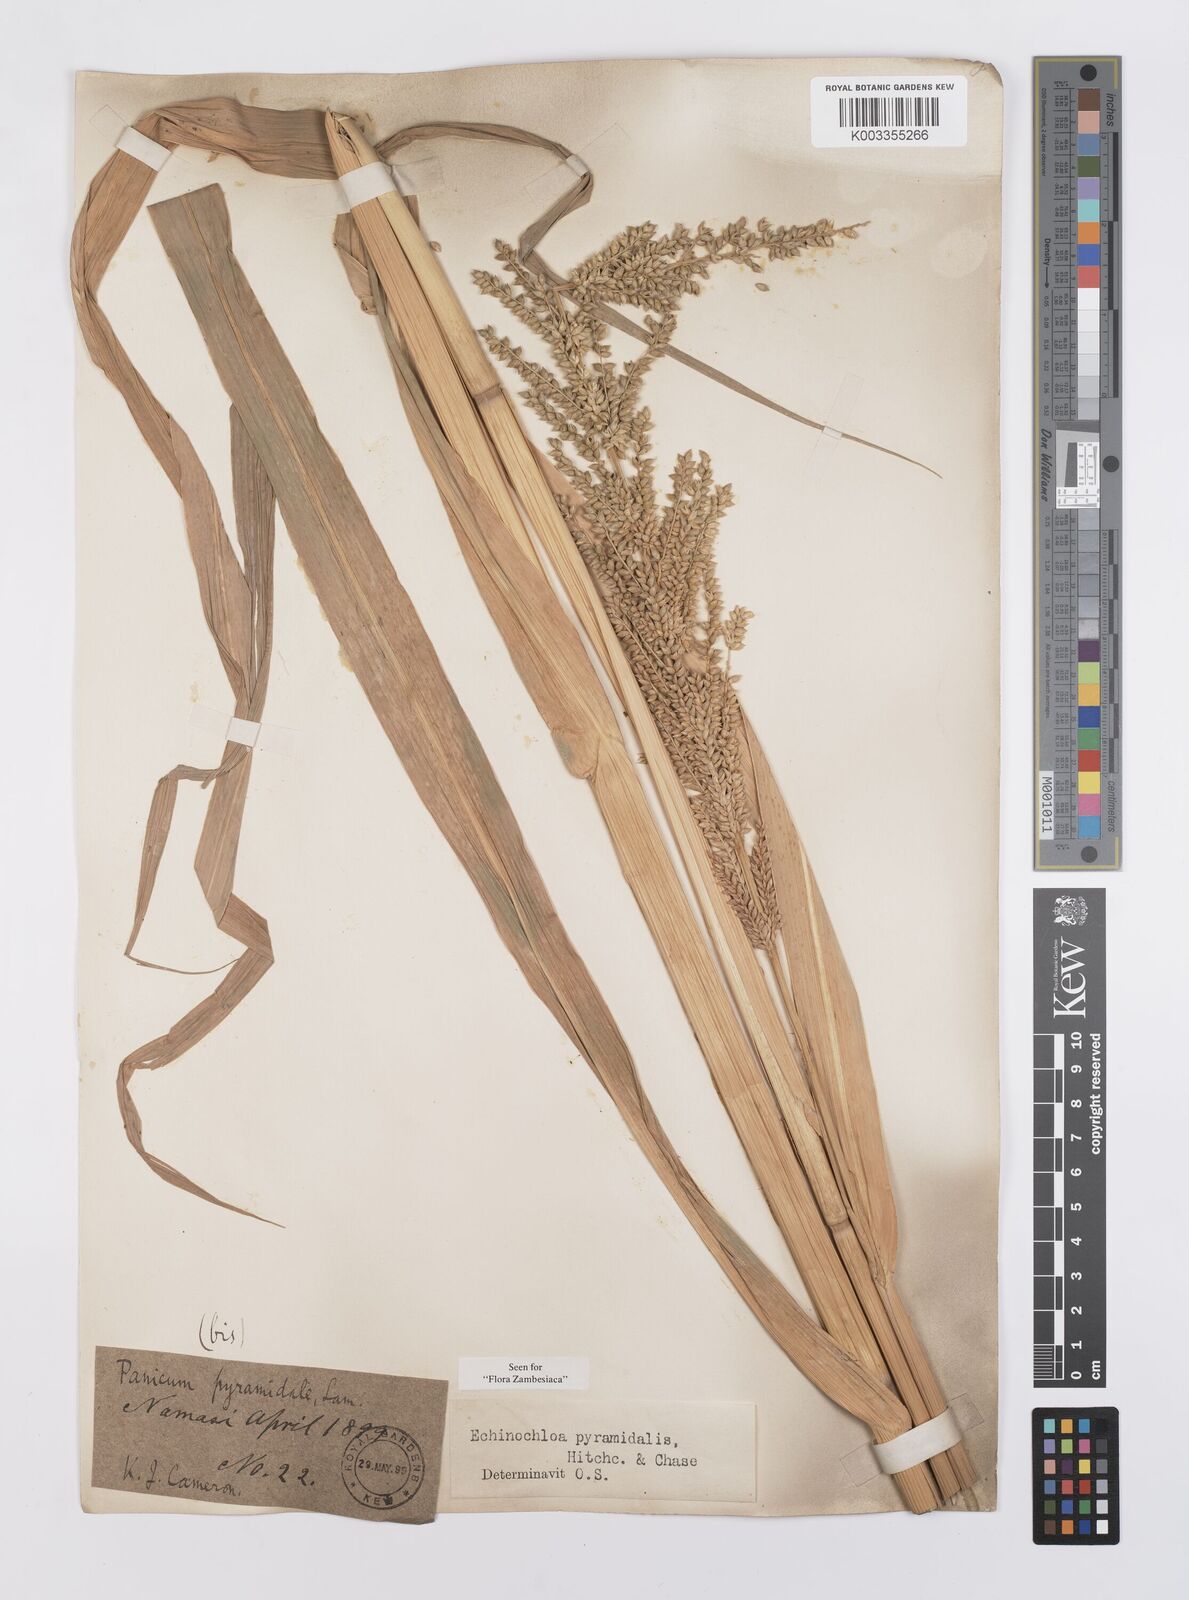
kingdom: Plantae
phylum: Tracheophyta
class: Liliopsida
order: Poales
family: Poaceae
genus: Echinochloa
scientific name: Echinochloa pyramidalis
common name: Antelope grass
